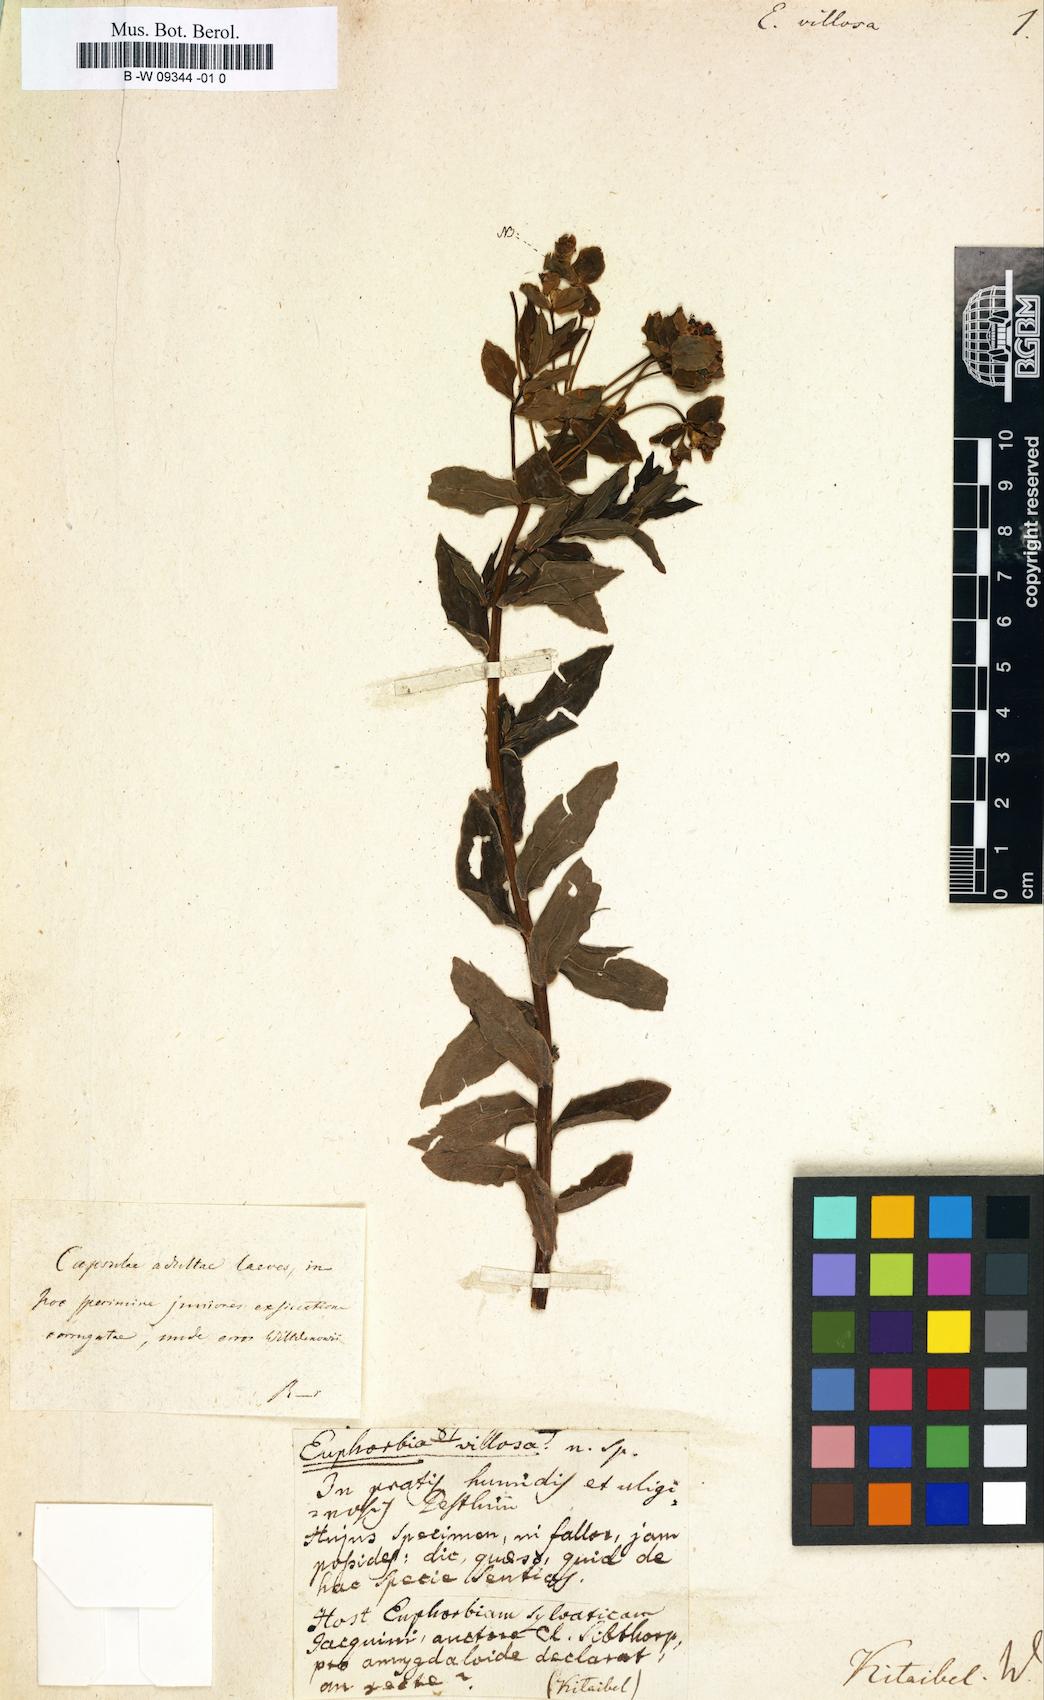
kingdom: Plantae
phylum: Tracheophyta
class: Magnoliopsida
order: Malpighiales
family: Euphorbiaceae
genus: Euphorbia
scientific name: Euphorbia
